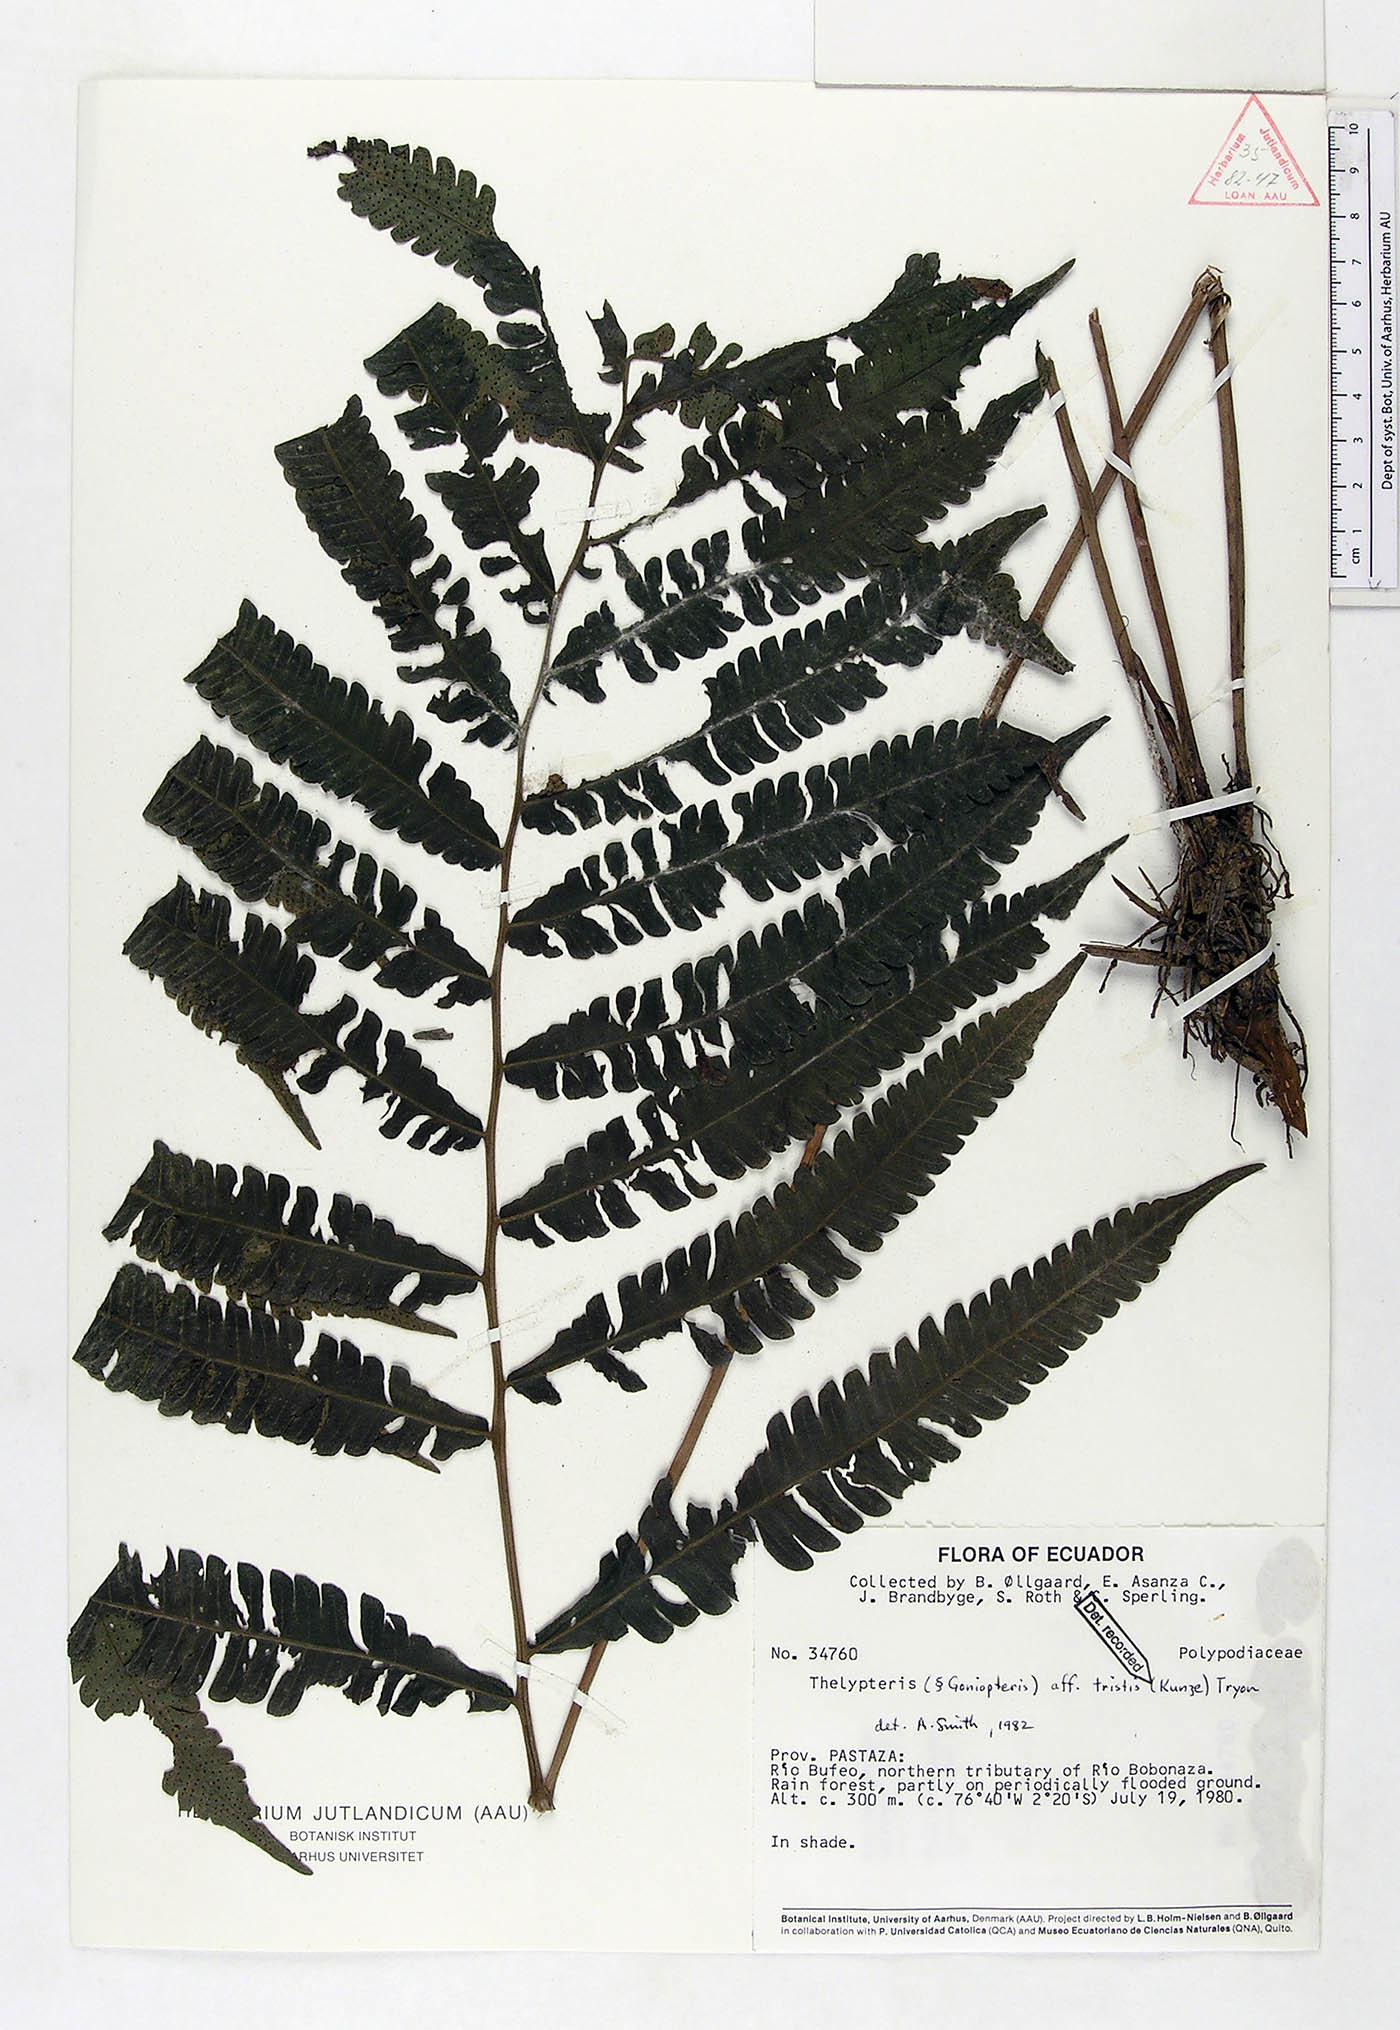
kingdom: Plantae
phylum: Tracheophyta
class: Polypodiopsida
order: Polypodiales
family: Thelypteridaceae
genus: Goniopteris
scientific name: Goniopteris tristis
